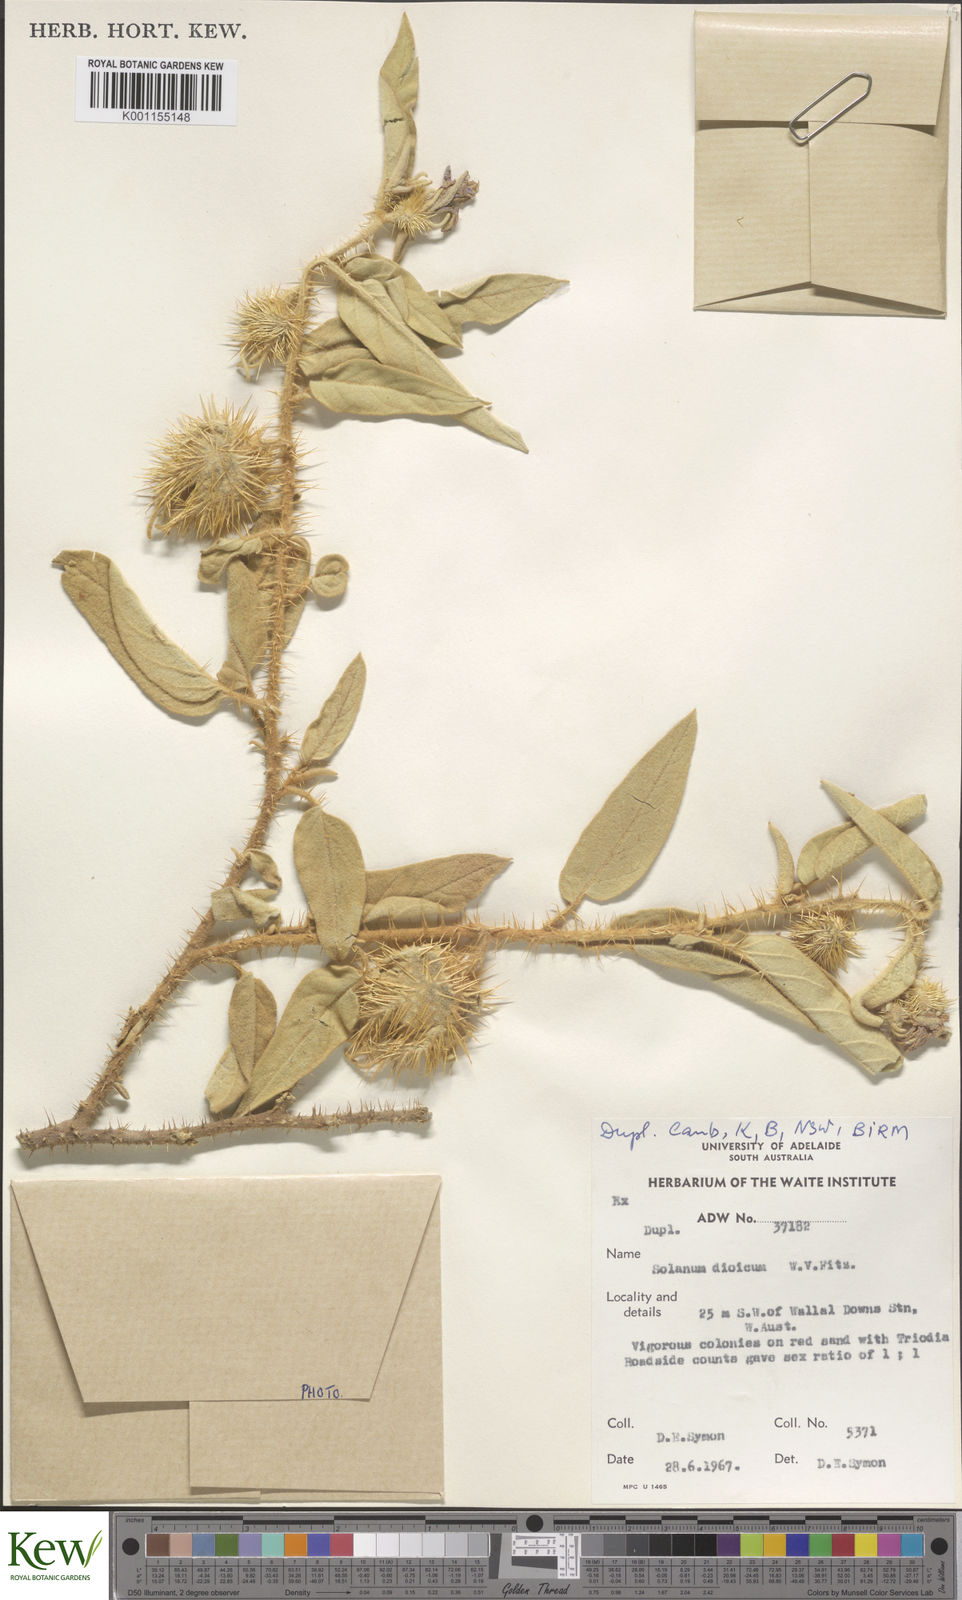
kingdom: Plantae
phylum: Tracheophyta
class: Magnoliopsida
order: Solanales
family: Solanaceae
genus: Solanum
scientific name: Solanum dioicum
